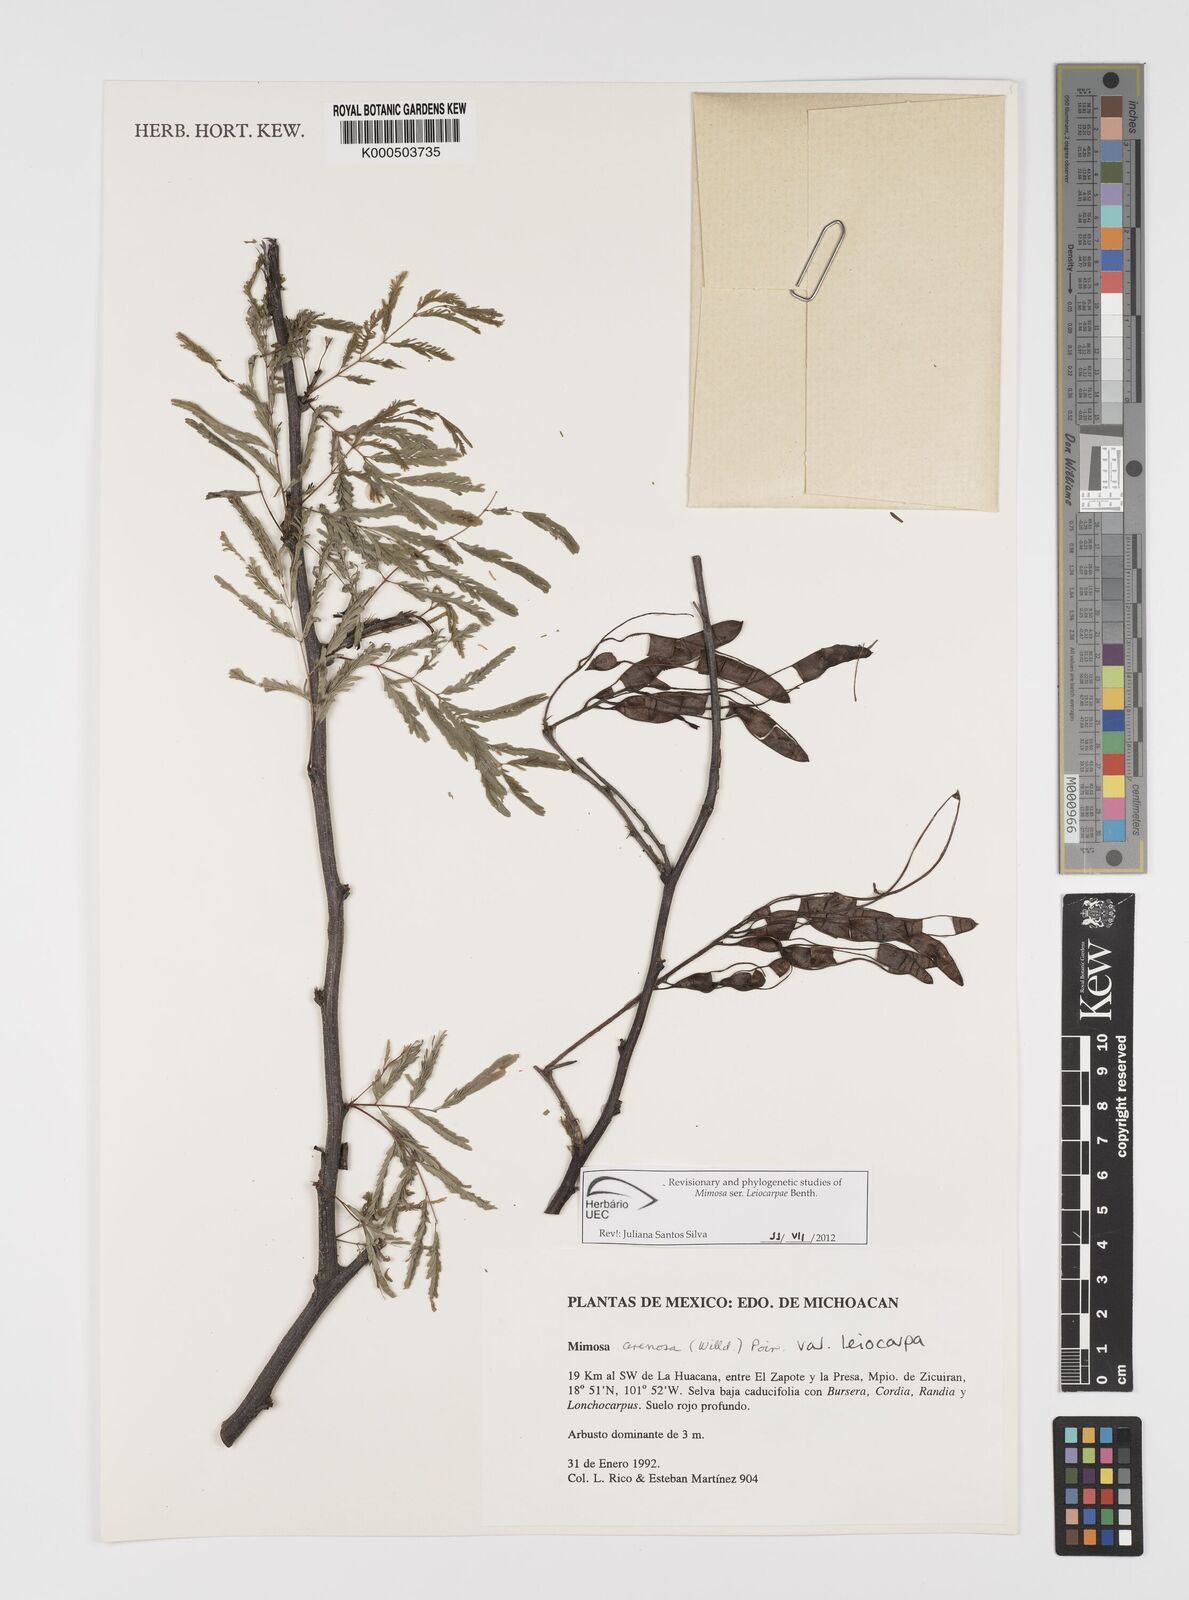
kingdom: Plantae
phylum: Tracheophyta
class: Magnoliopsida
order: Fabales
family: Fabaceae
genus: Mimosa
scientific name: Mimosa arenosa
